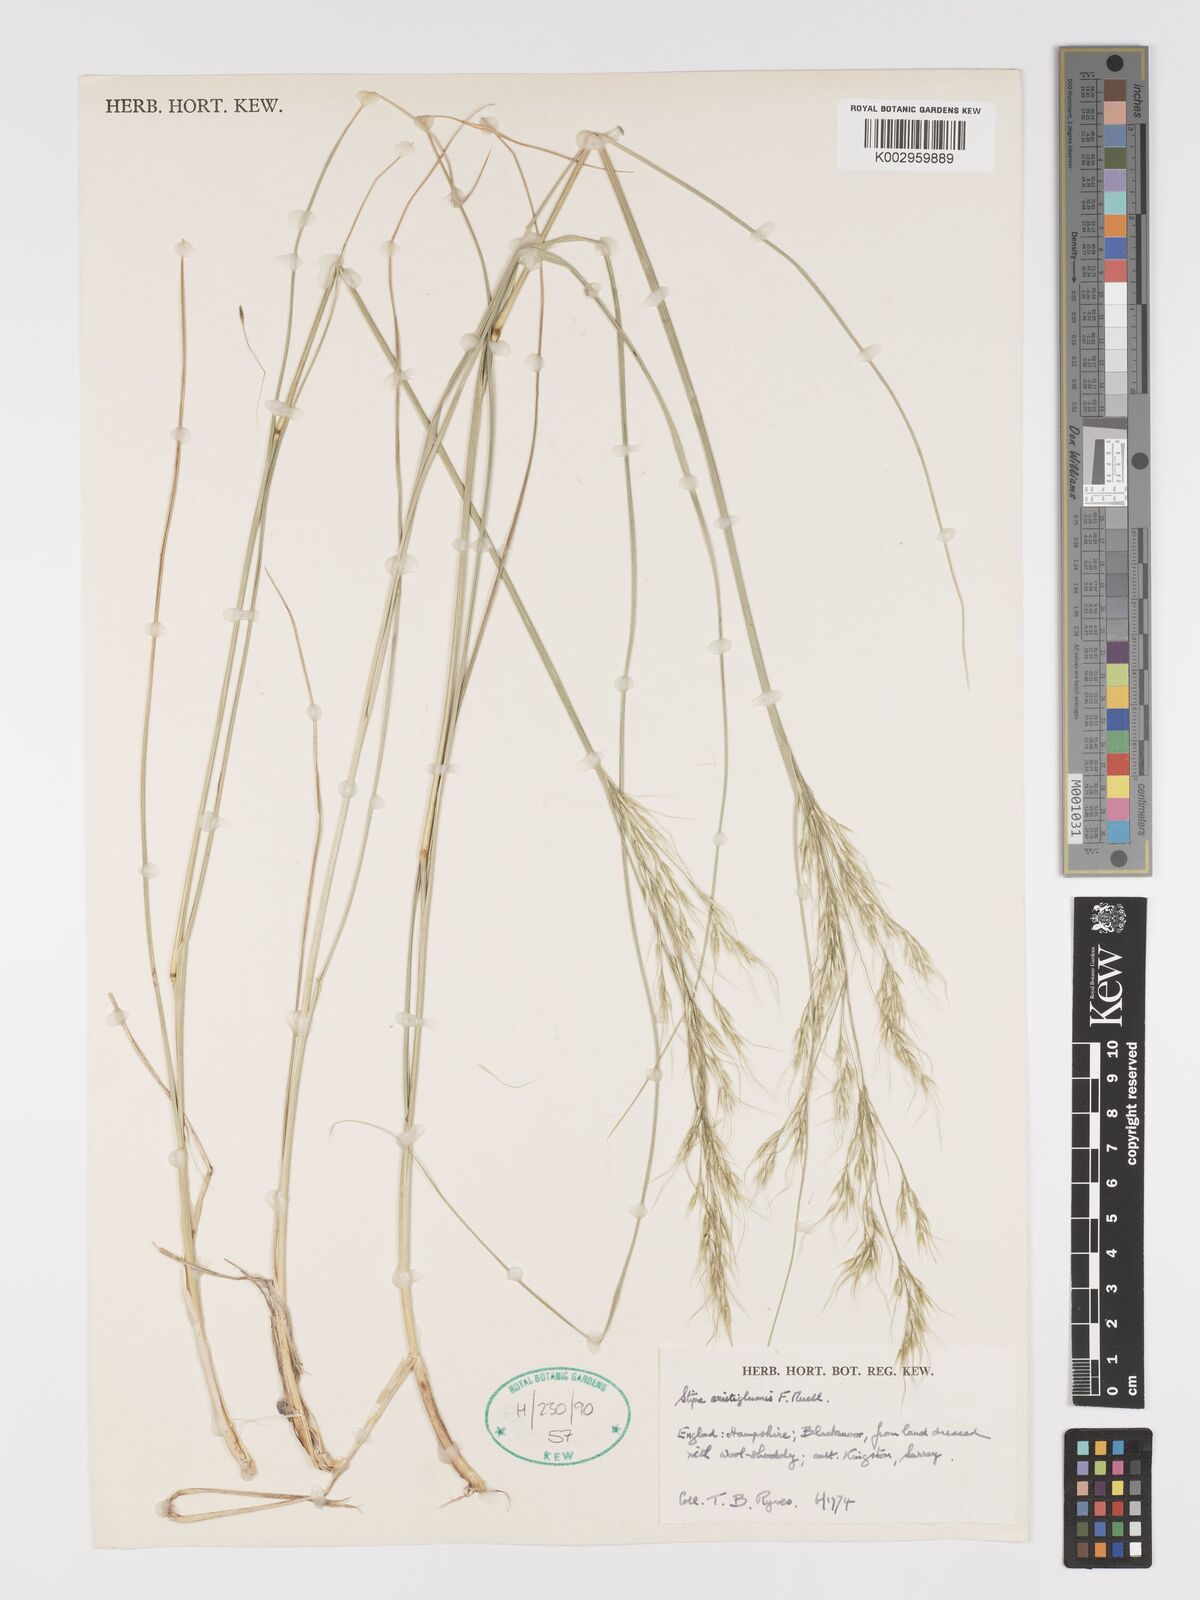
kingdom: Plantae
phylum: Tracheophyta
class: Liliopsida
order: Poales
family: Poaceae
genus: Austrostipa
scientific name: Austrostipa aristiglumis
